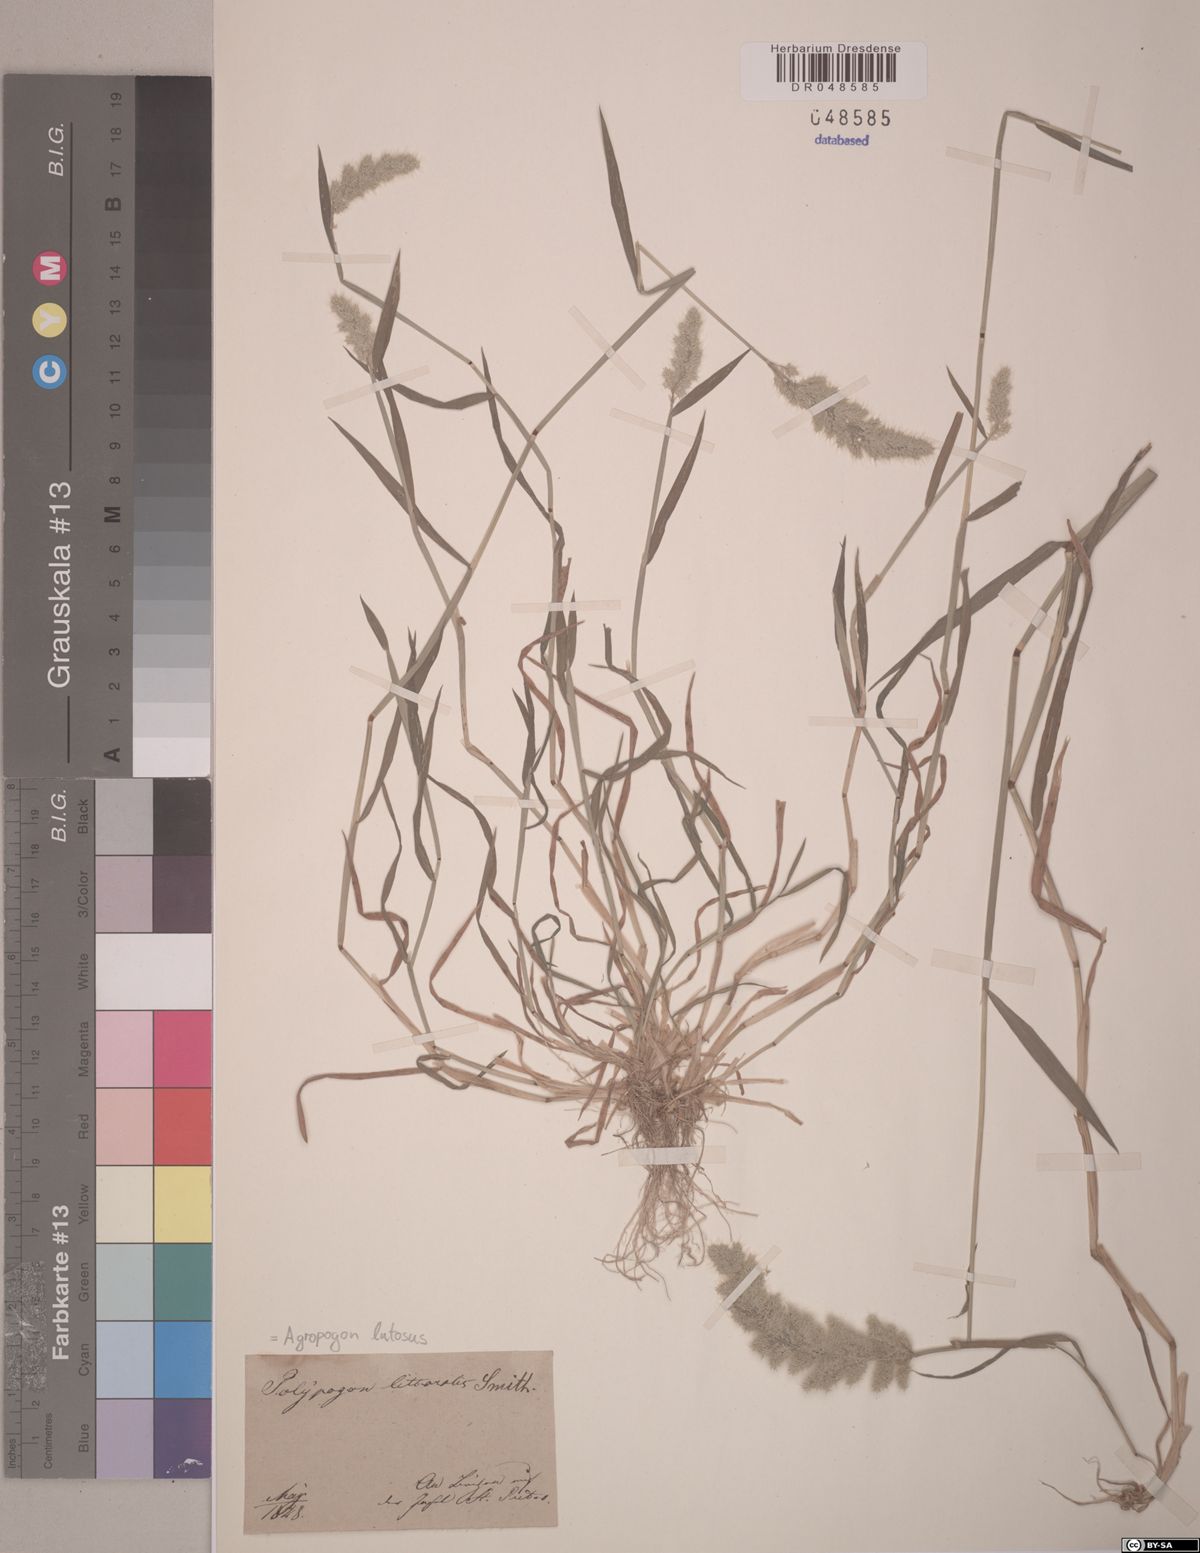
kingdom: Plantae
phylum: Tracheophyta
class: Liliopsida
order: Poales
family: Poaceae
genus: Agropogon
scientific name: Agropogon lutosus
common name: Coast agropogon
